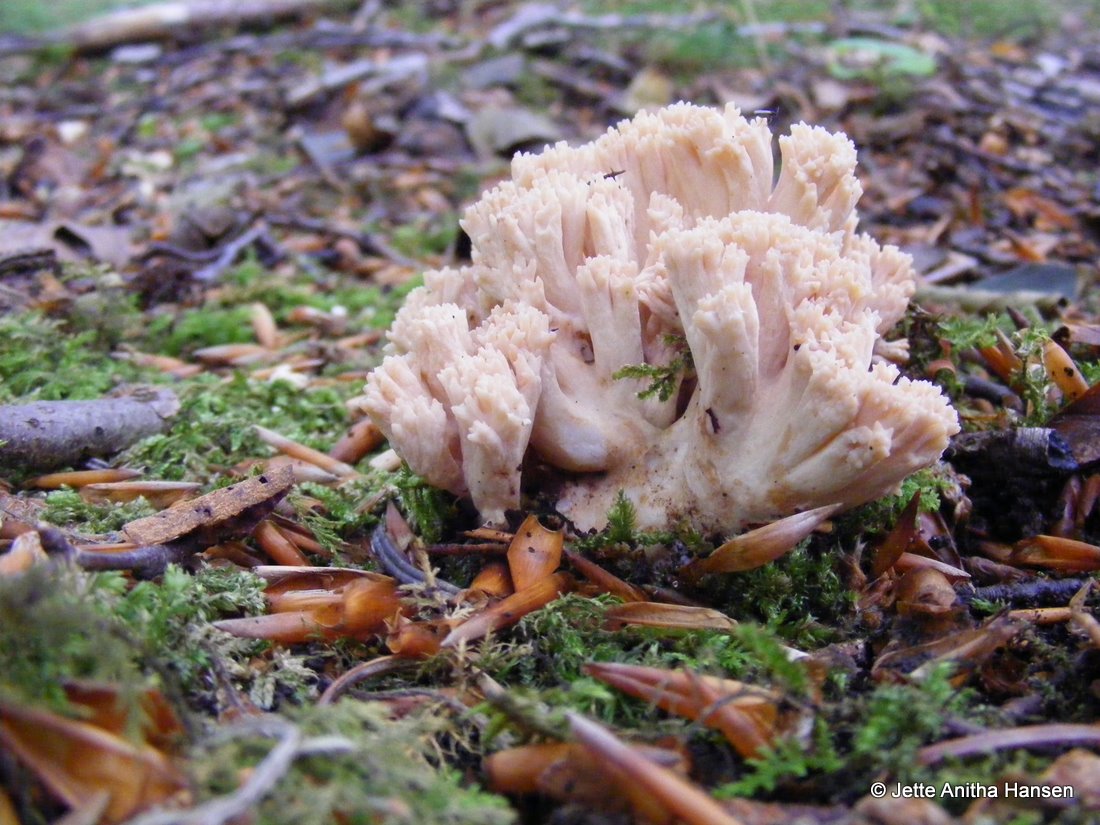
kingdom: Fungi
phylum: Basidiomycota
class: Agaricomycetes
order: Gomphales
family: Gomphaceae
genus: Ramaria
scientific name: Ramaria
